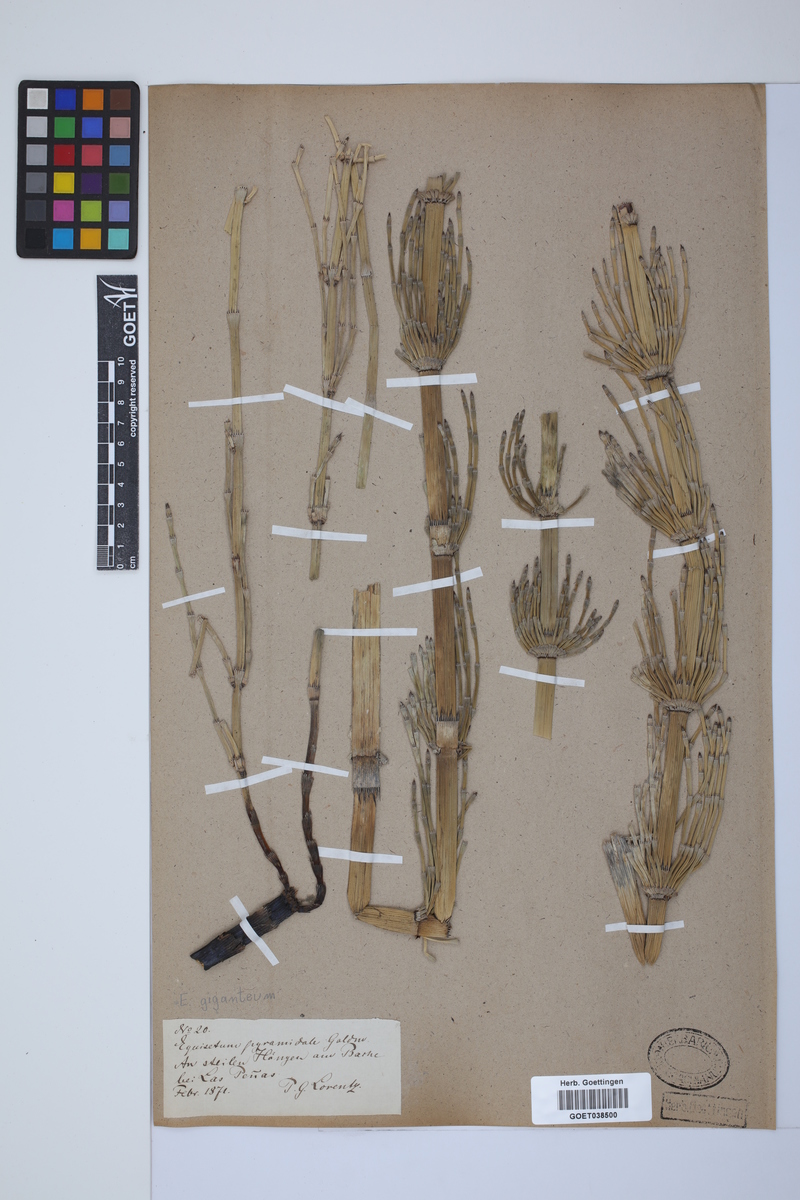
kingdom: Plantae
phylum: Tracheophyta
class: Polypodiopsida
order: Equisetales
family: Equisetaceae
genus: Equisetum
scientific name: Equisetum giganteum
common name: Giant horsetail
